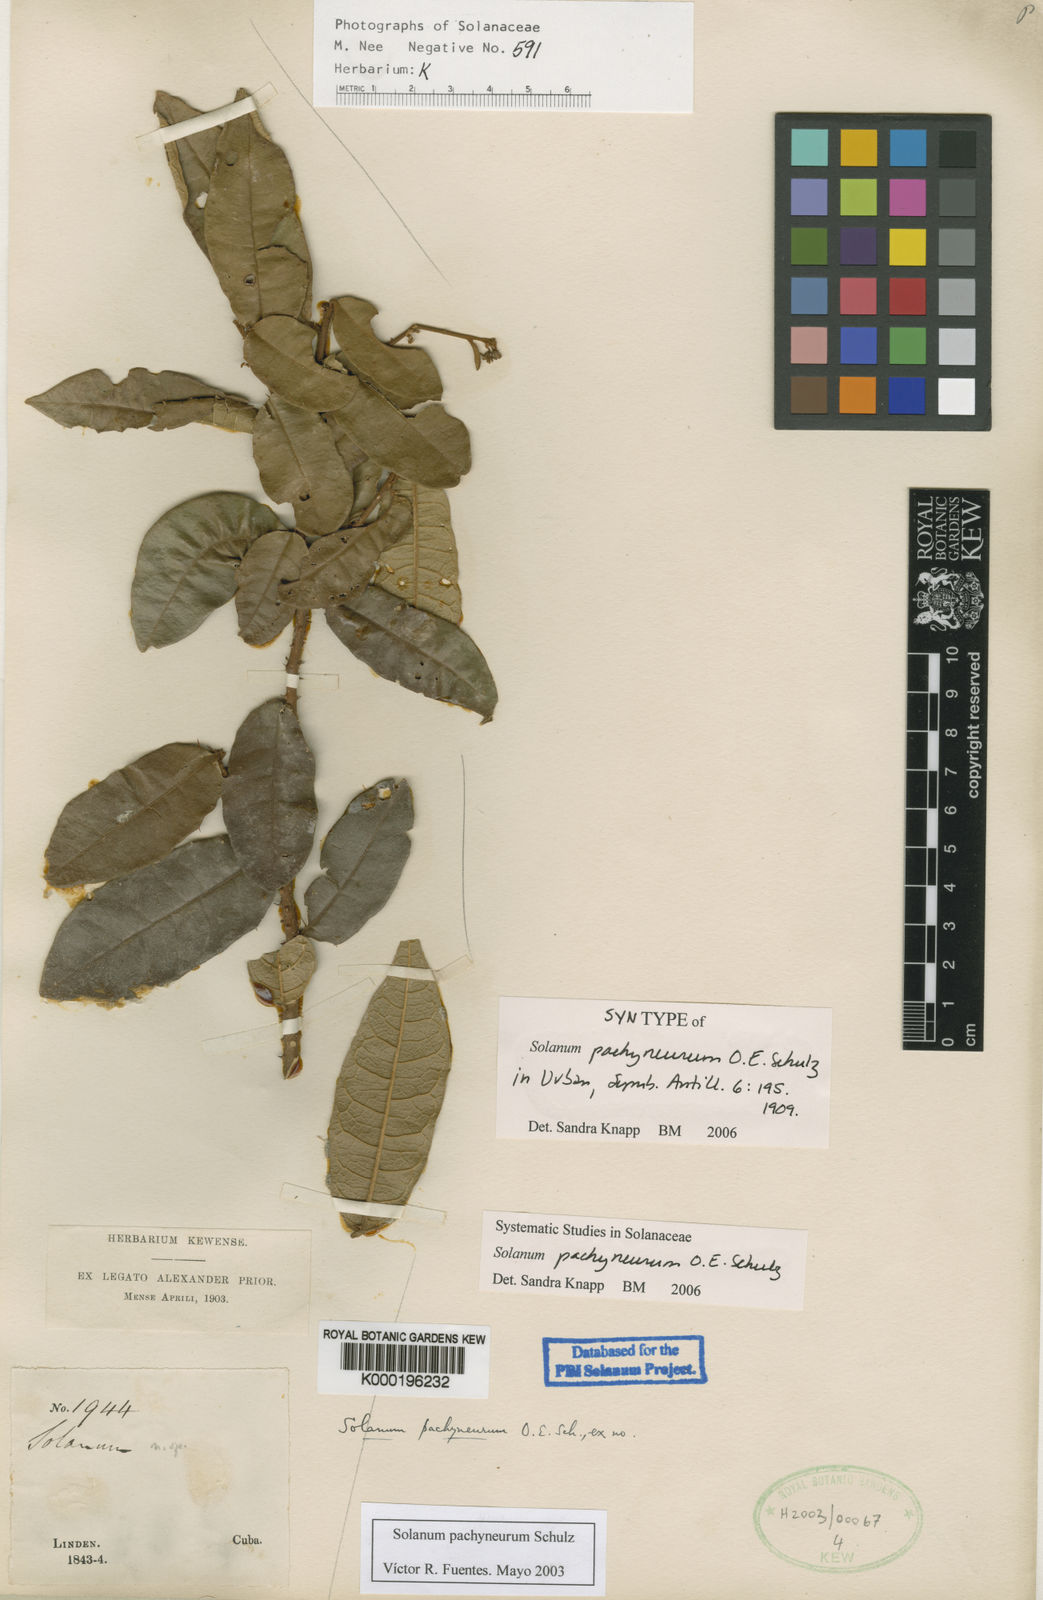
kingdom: Plantae
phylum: Tracheophyta
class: Magnoliopsida
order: Solanales
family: Solanaceae
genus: Solanum
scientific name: Solanum pachyneurum
